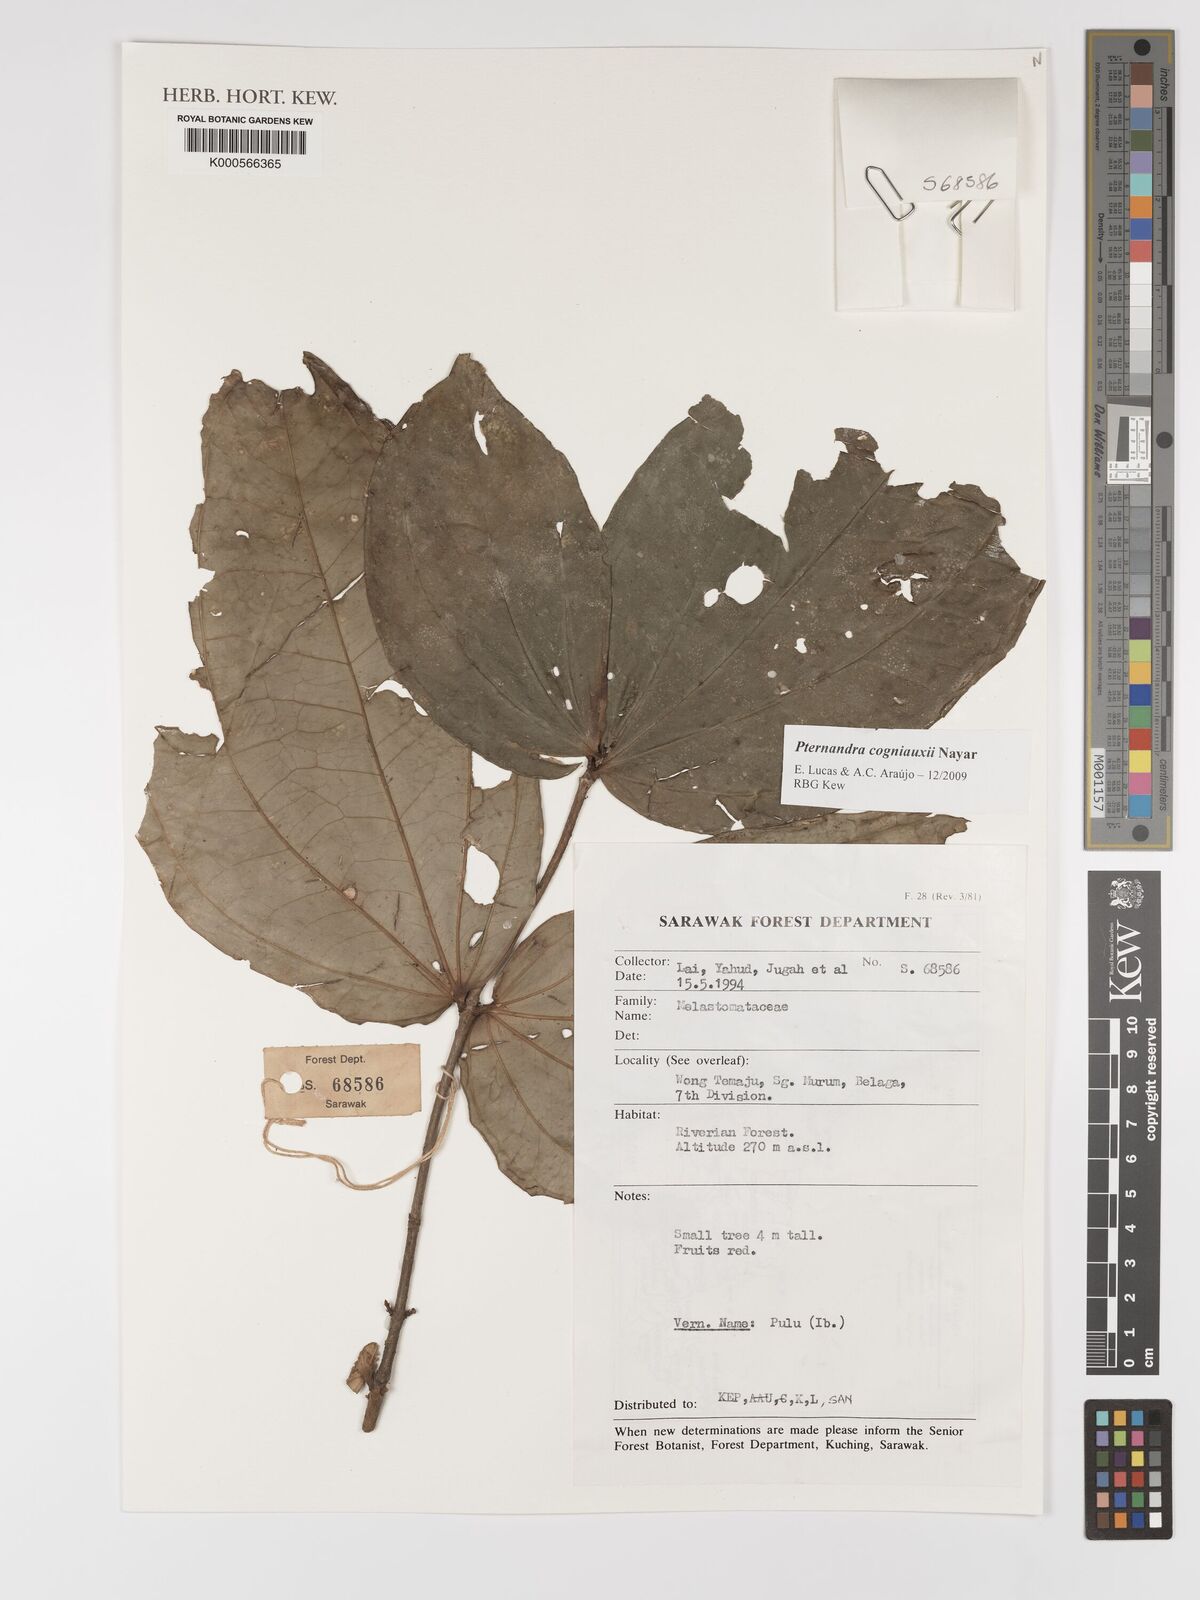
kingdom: Plantae
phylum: Tracheophyta
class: Magnoliopsida
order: Myrtales
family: Melastomataceae
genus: Pternandra
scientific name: Pternandra cogniauxii
